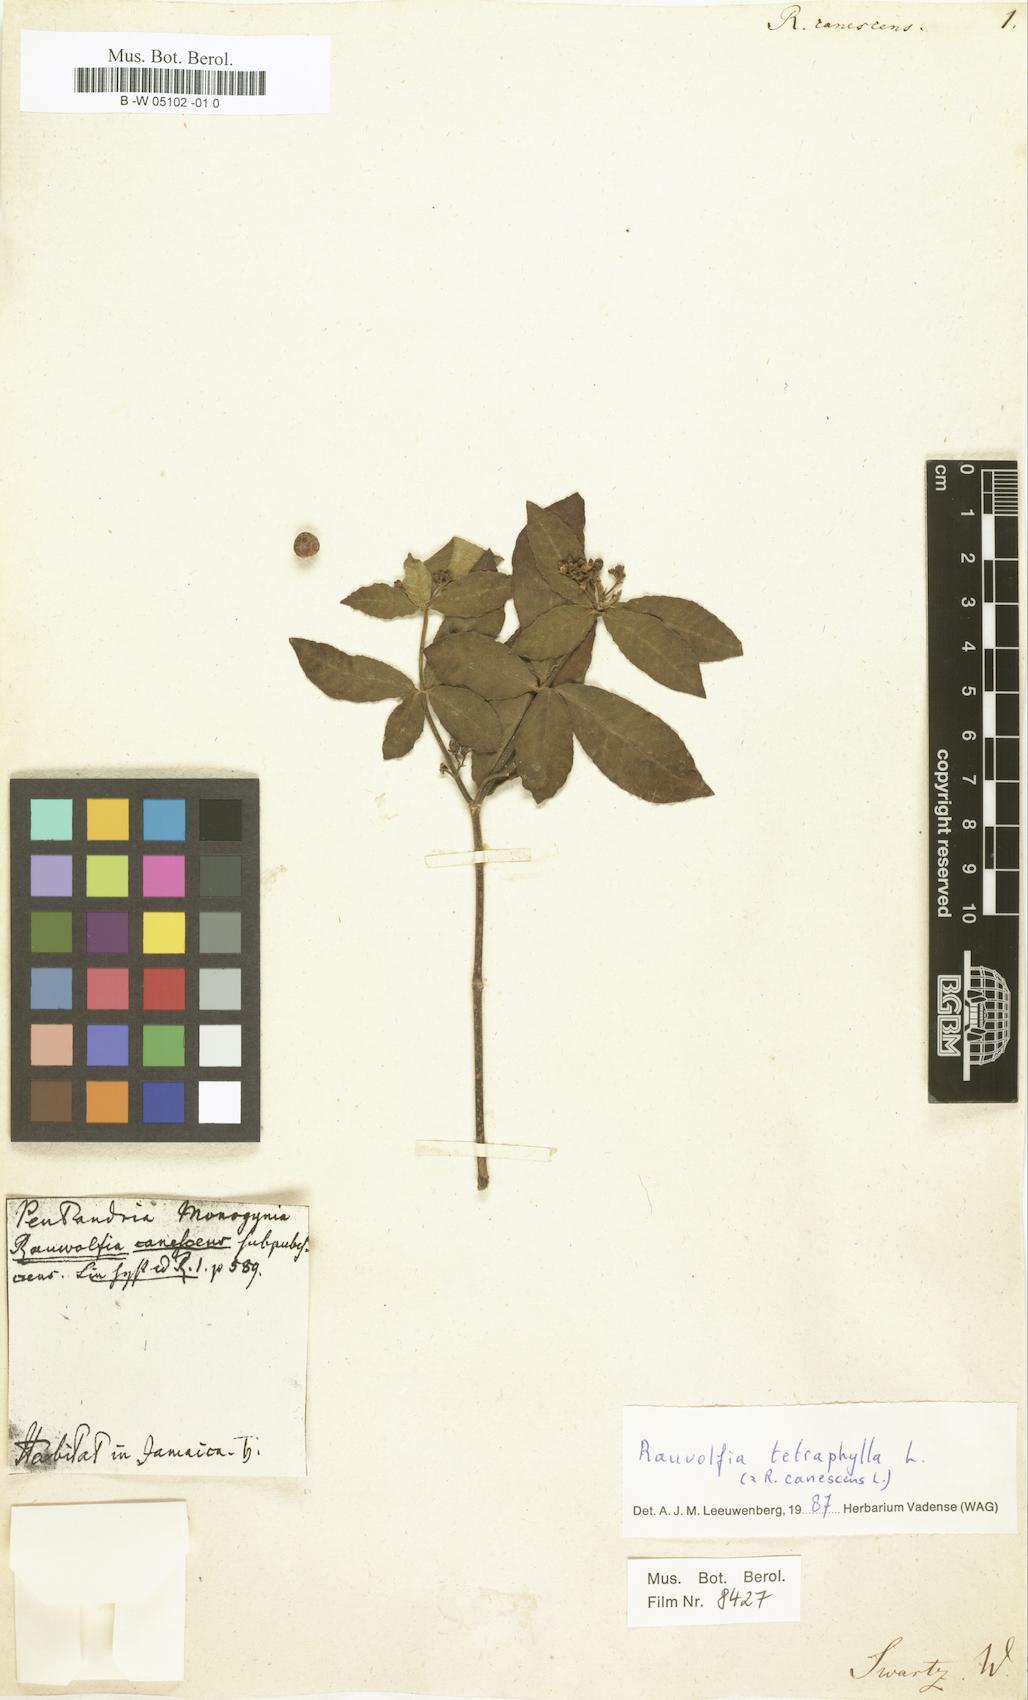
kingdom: Plantae
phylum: Tracheophyta
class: Magnoliopsida
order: Gentianales
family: Apocynaceae
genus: Rauvolfia
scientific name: Rauvolfia tetraphylla
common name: Four-leaf devil-pepper
